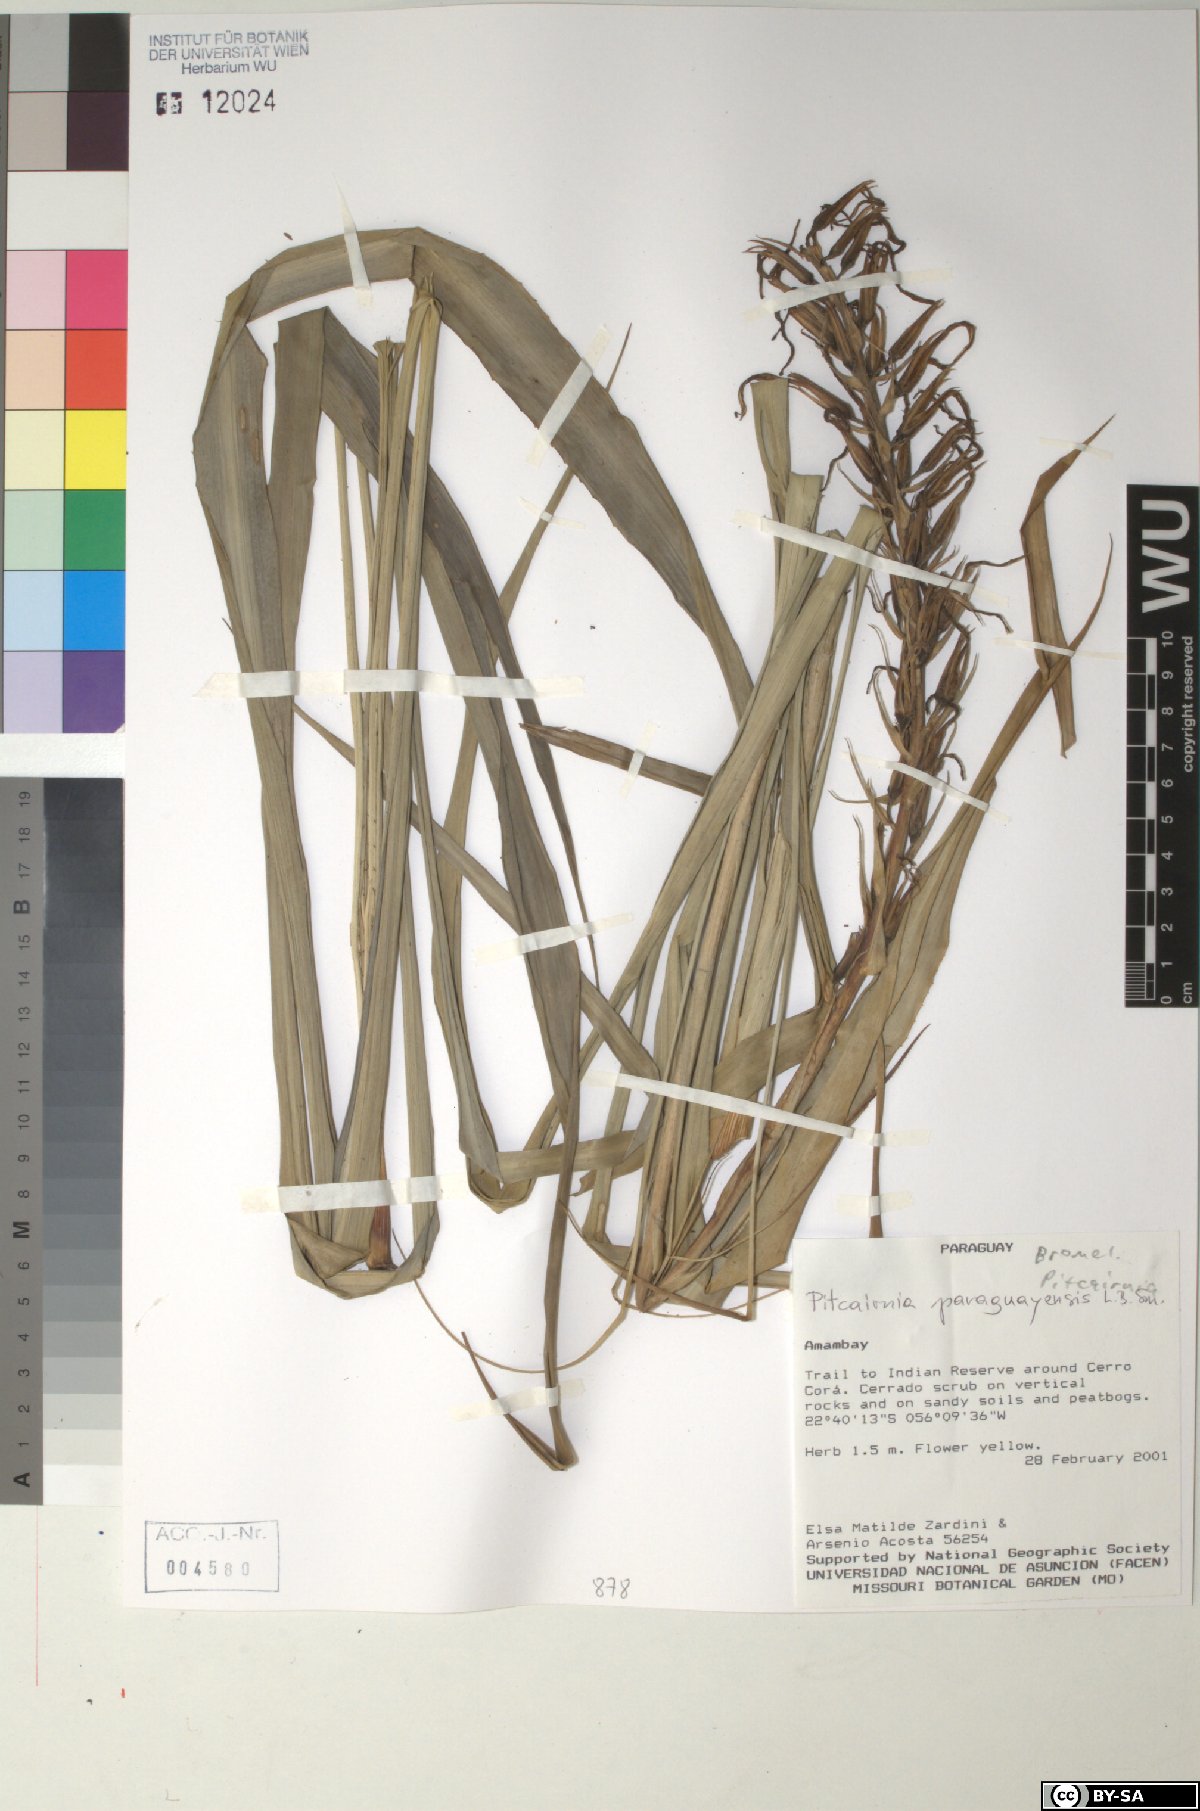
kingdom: Plantae
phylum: Tracheophyta
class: Liliopsida
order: Poales
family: Bromeliaceae
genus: Pitcairnia
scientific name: Pitcairnia paraguayensis
